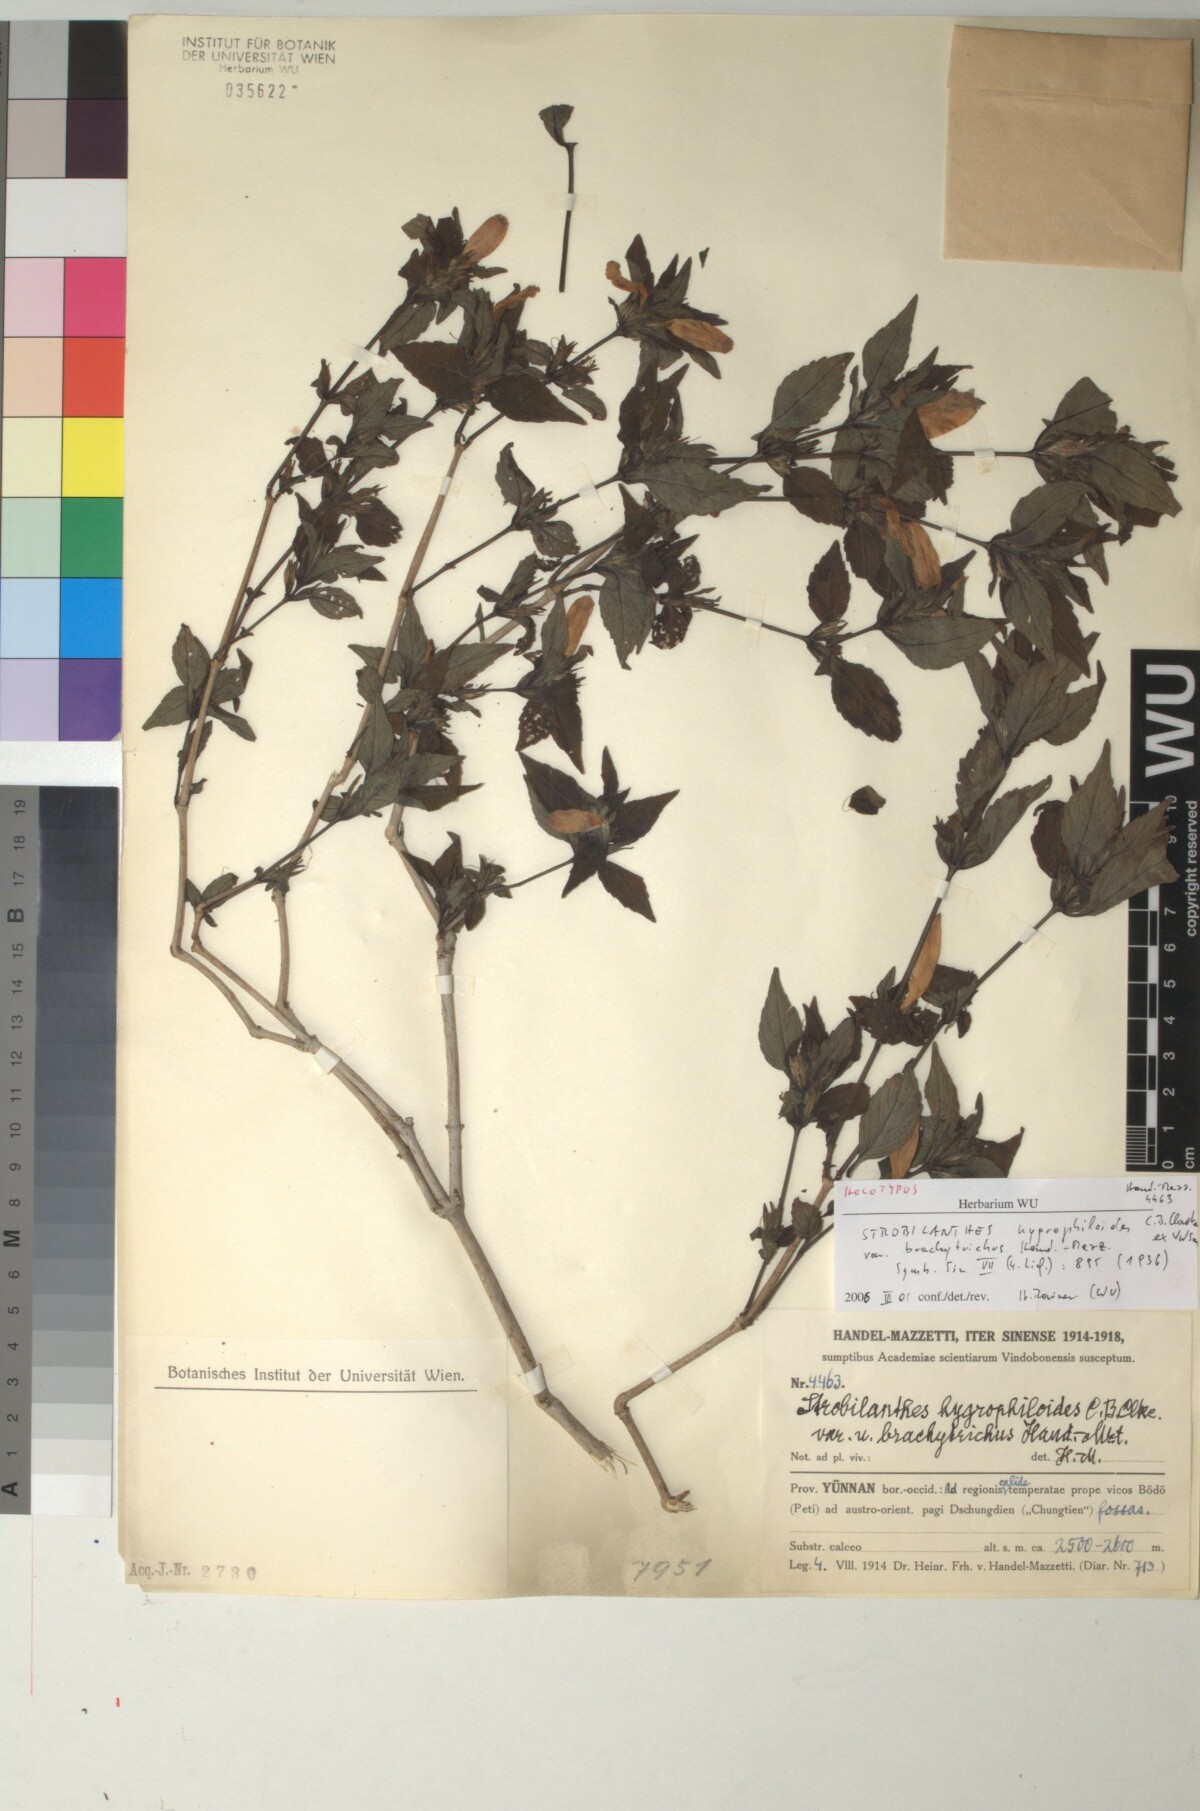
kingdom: Plantae
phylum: Tracheophyta
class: Magnoliopsida
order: Lamiales
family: Acanthaceae
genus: Strobilanthes
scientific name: Strobilanthes yunnanensis
